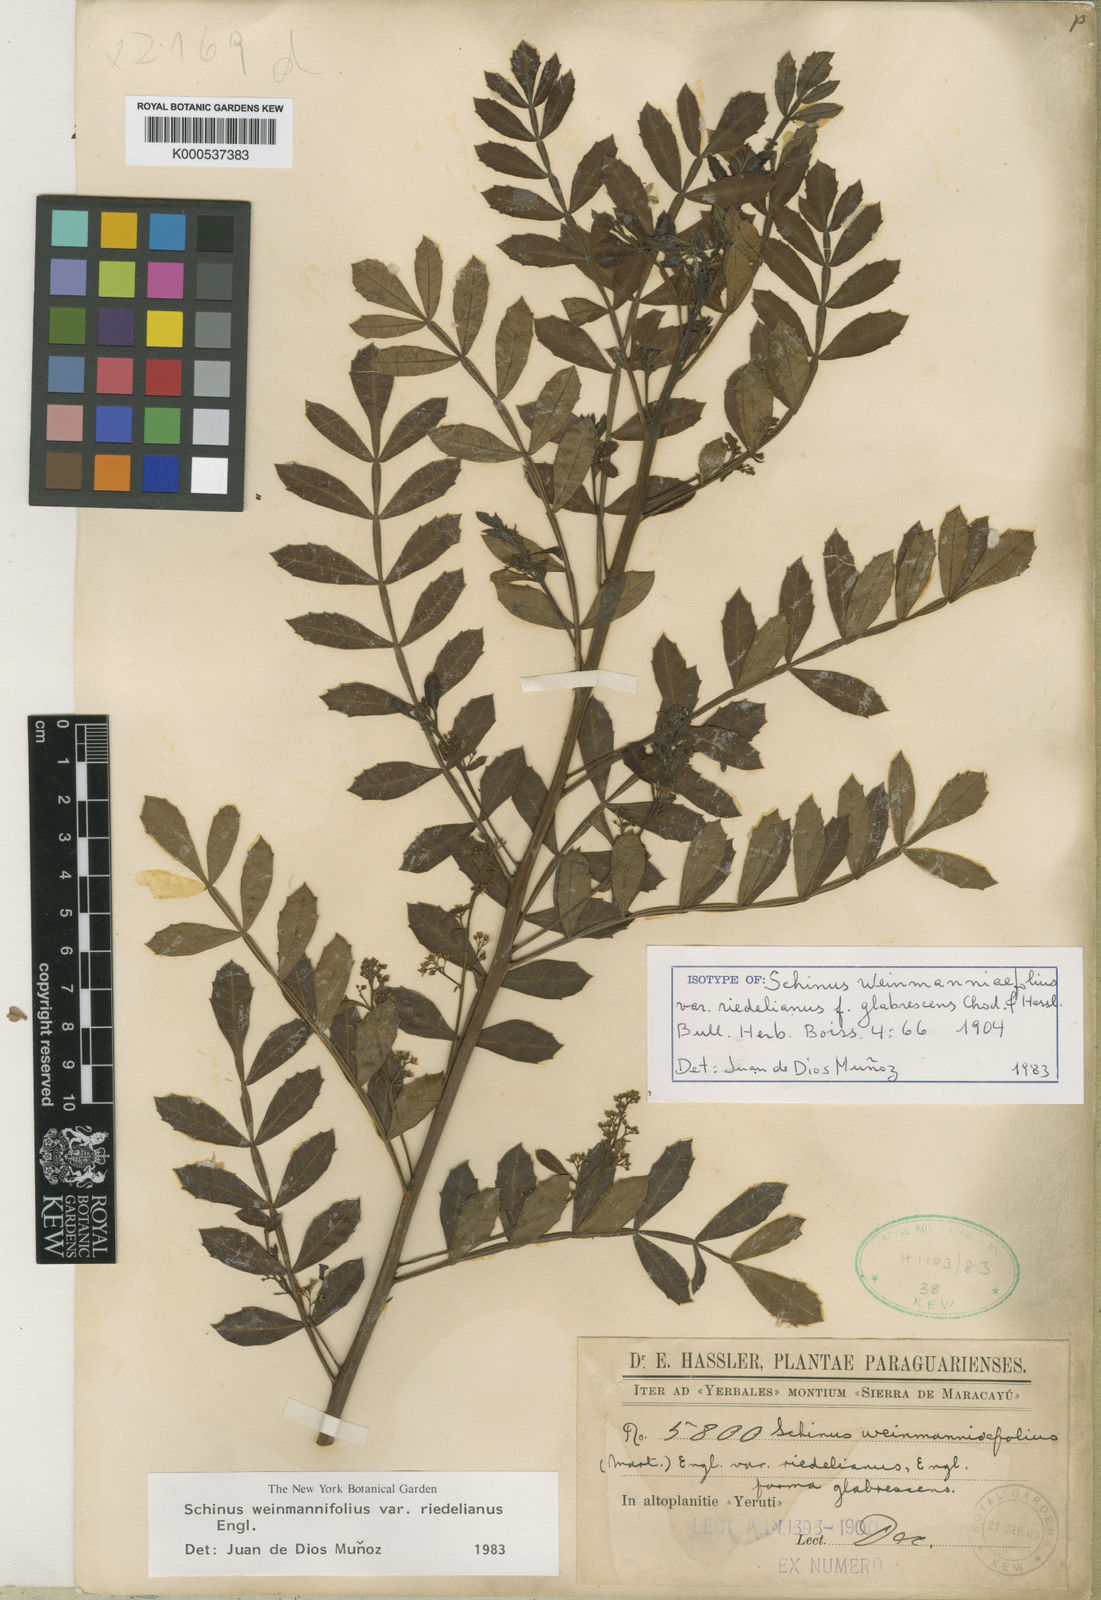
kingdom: Plantae
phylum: Tracheophyta
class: Magnoliopsida
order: Sapindales
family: Anacardiaceae
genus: Schinus
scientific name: Schinus
